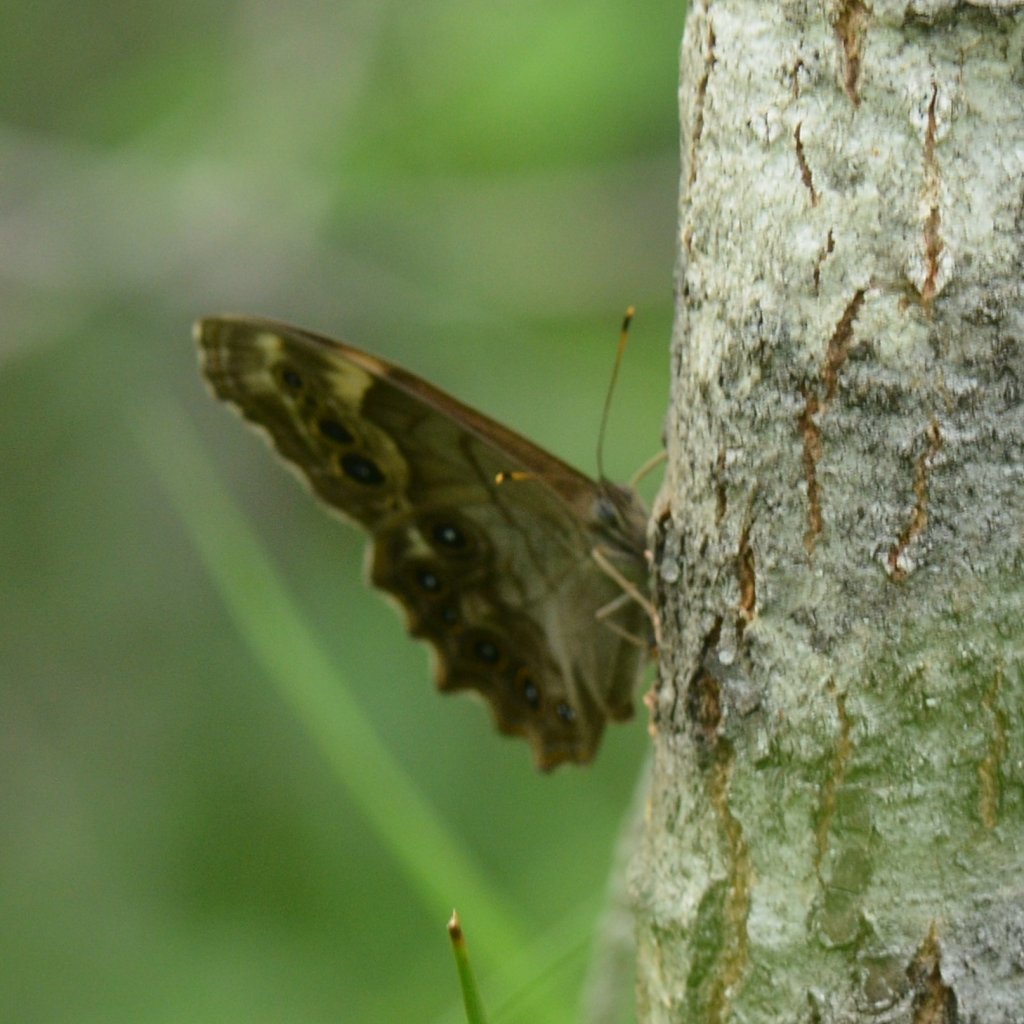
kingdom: Animalia
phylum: Arthropoda
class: Insecta
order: Lepidoptera
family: Nymphalidae
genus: Lethe
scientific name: Lethe anthedon
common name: Northern Pearly-Eye
